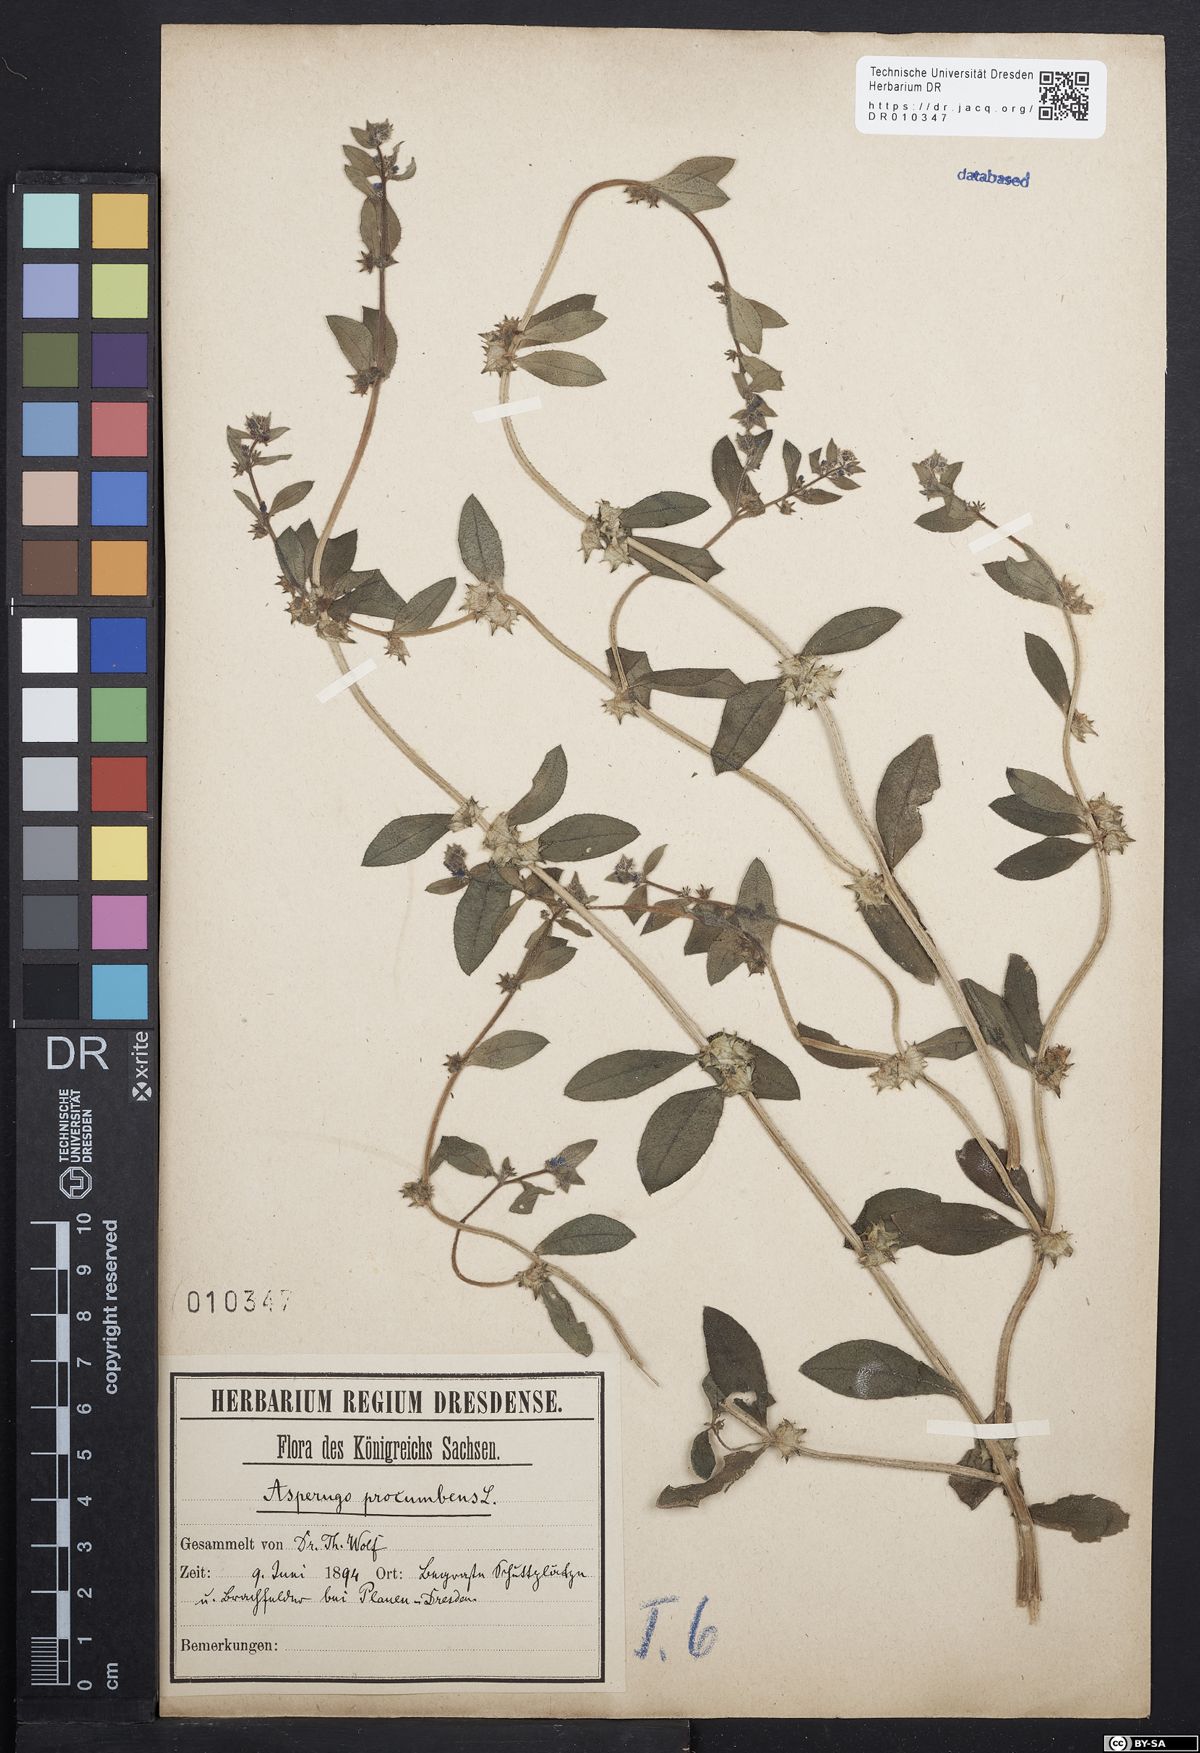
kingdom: Plantae
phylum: Tracheophyta
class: Magnoliopsida
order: Boraginales
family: Boraginaceae
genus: Asperugo
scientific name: Asperugo procumbens
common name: Madwort
